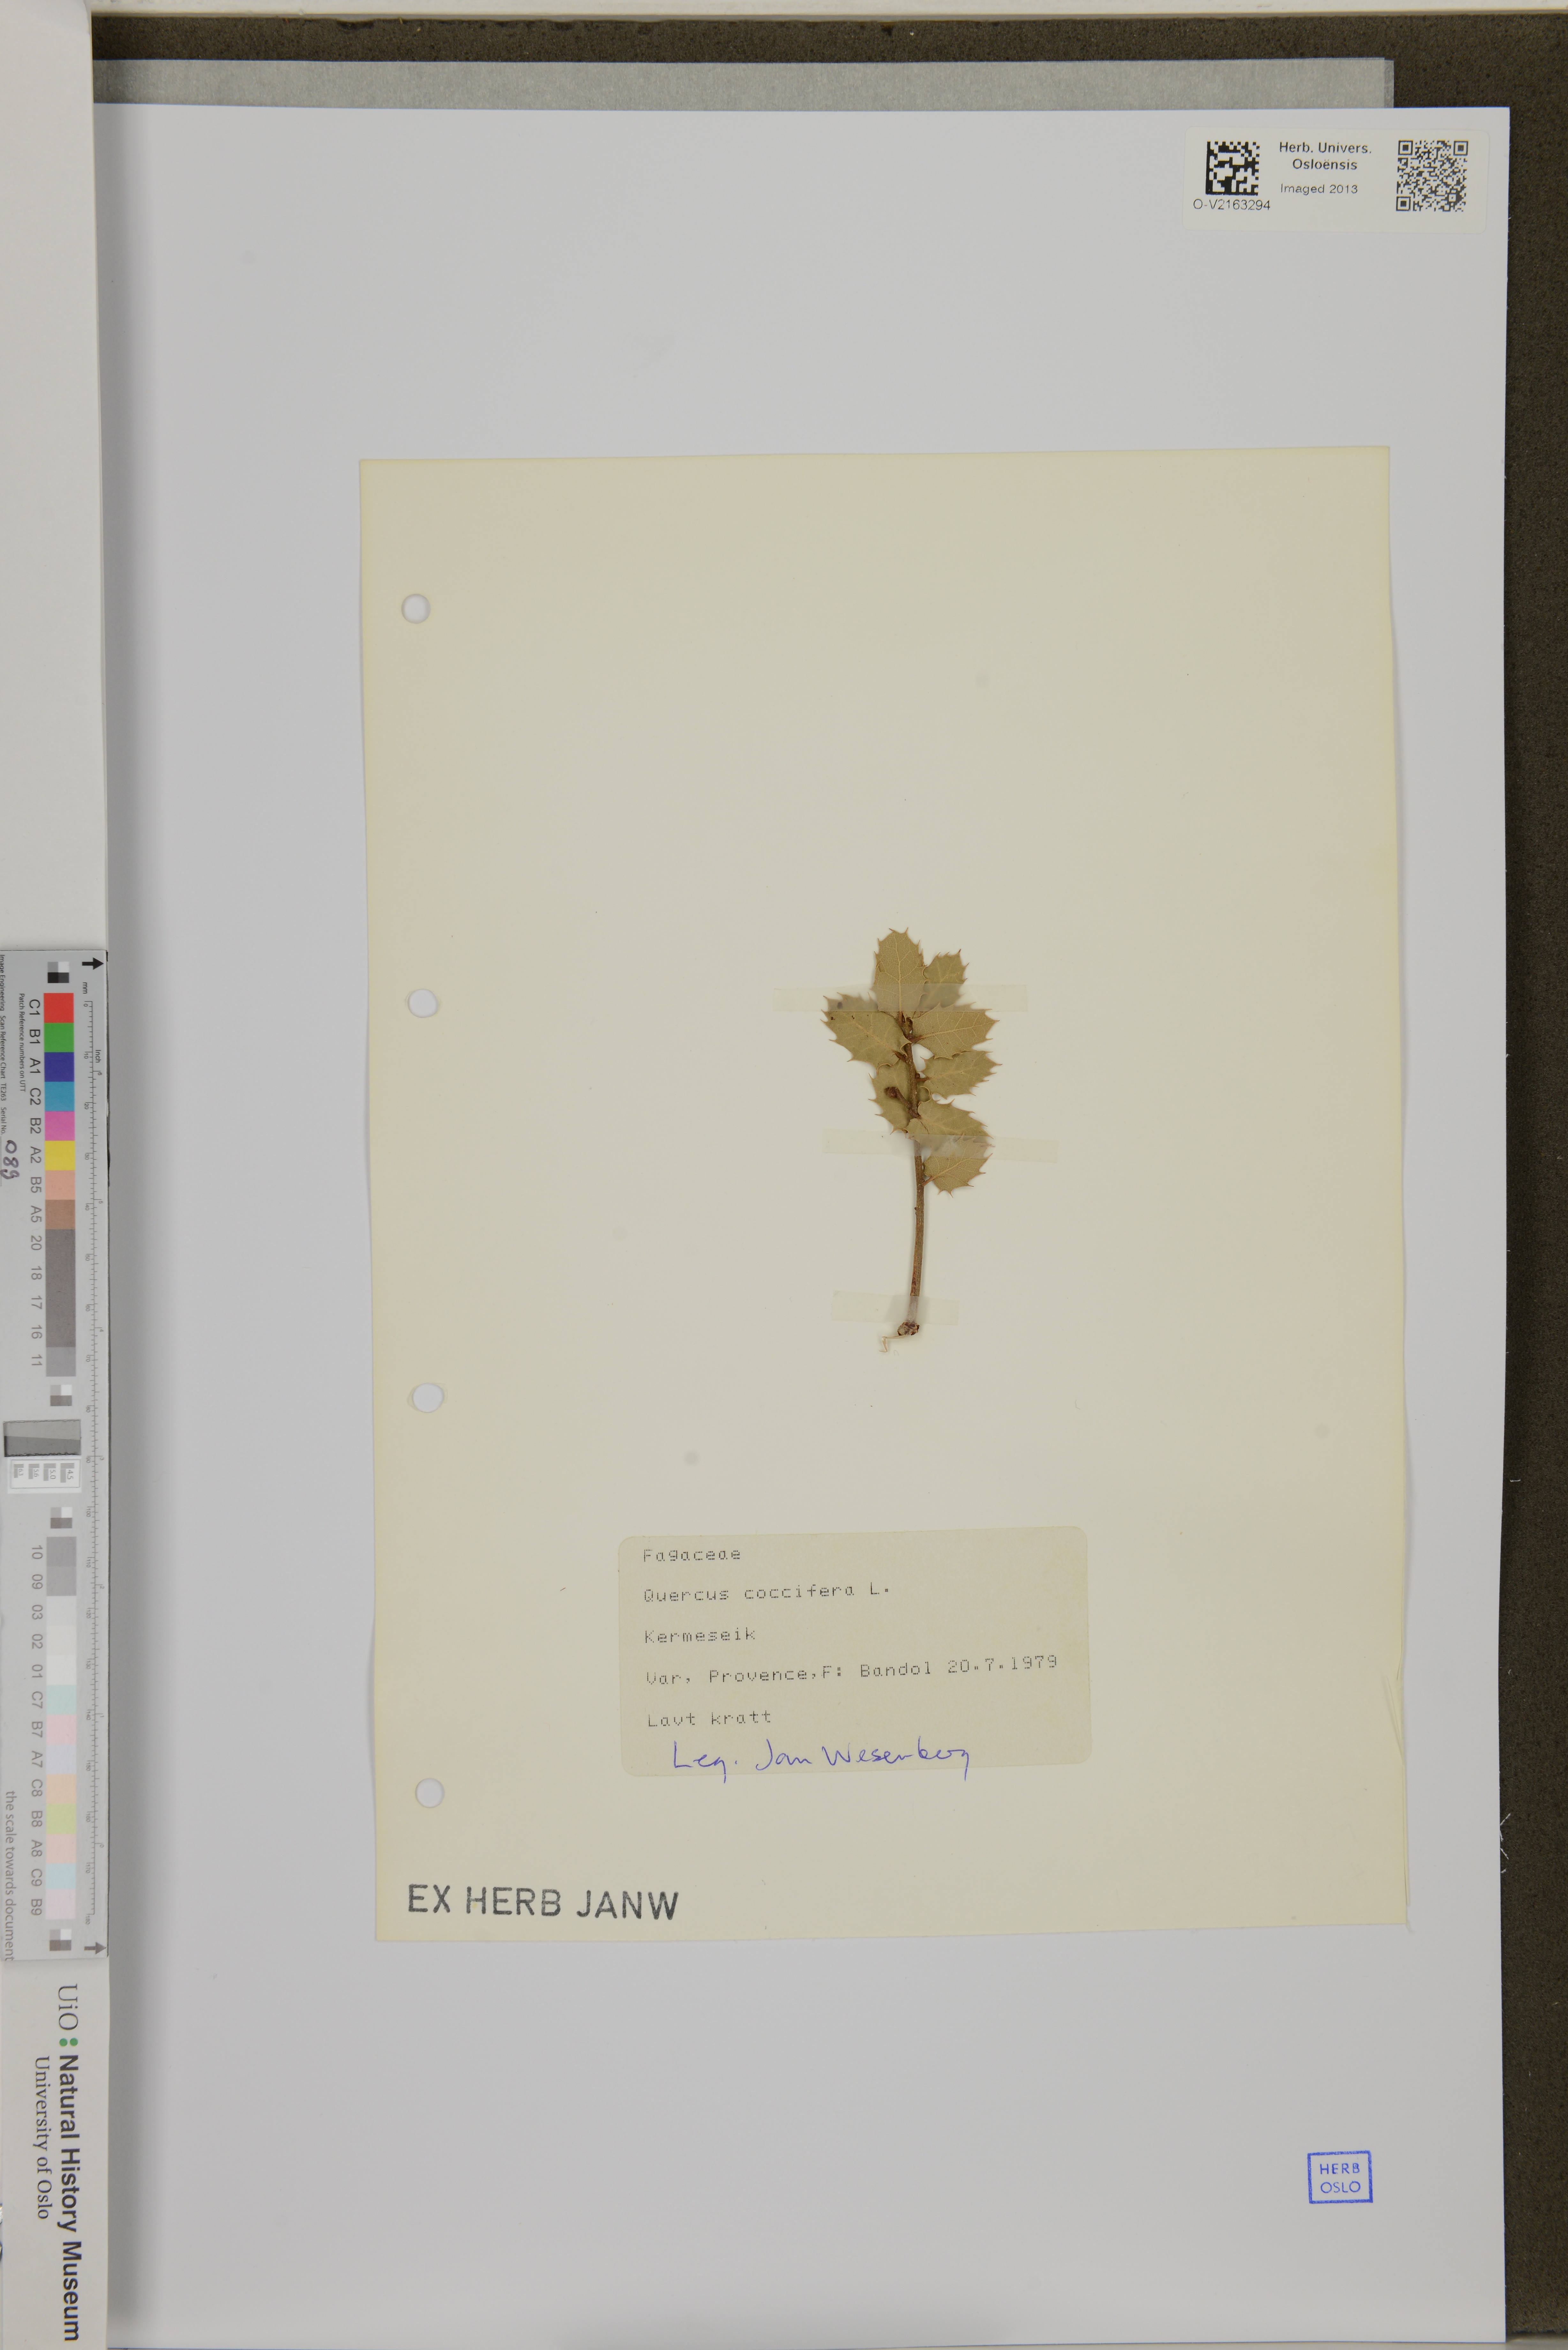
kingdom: Plantae
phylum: Tracheophyta
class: Magnoliopsida
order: Fagales
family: Fagaceae
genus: Quercus
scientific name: Quercus coccifera
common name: Kermes oak
